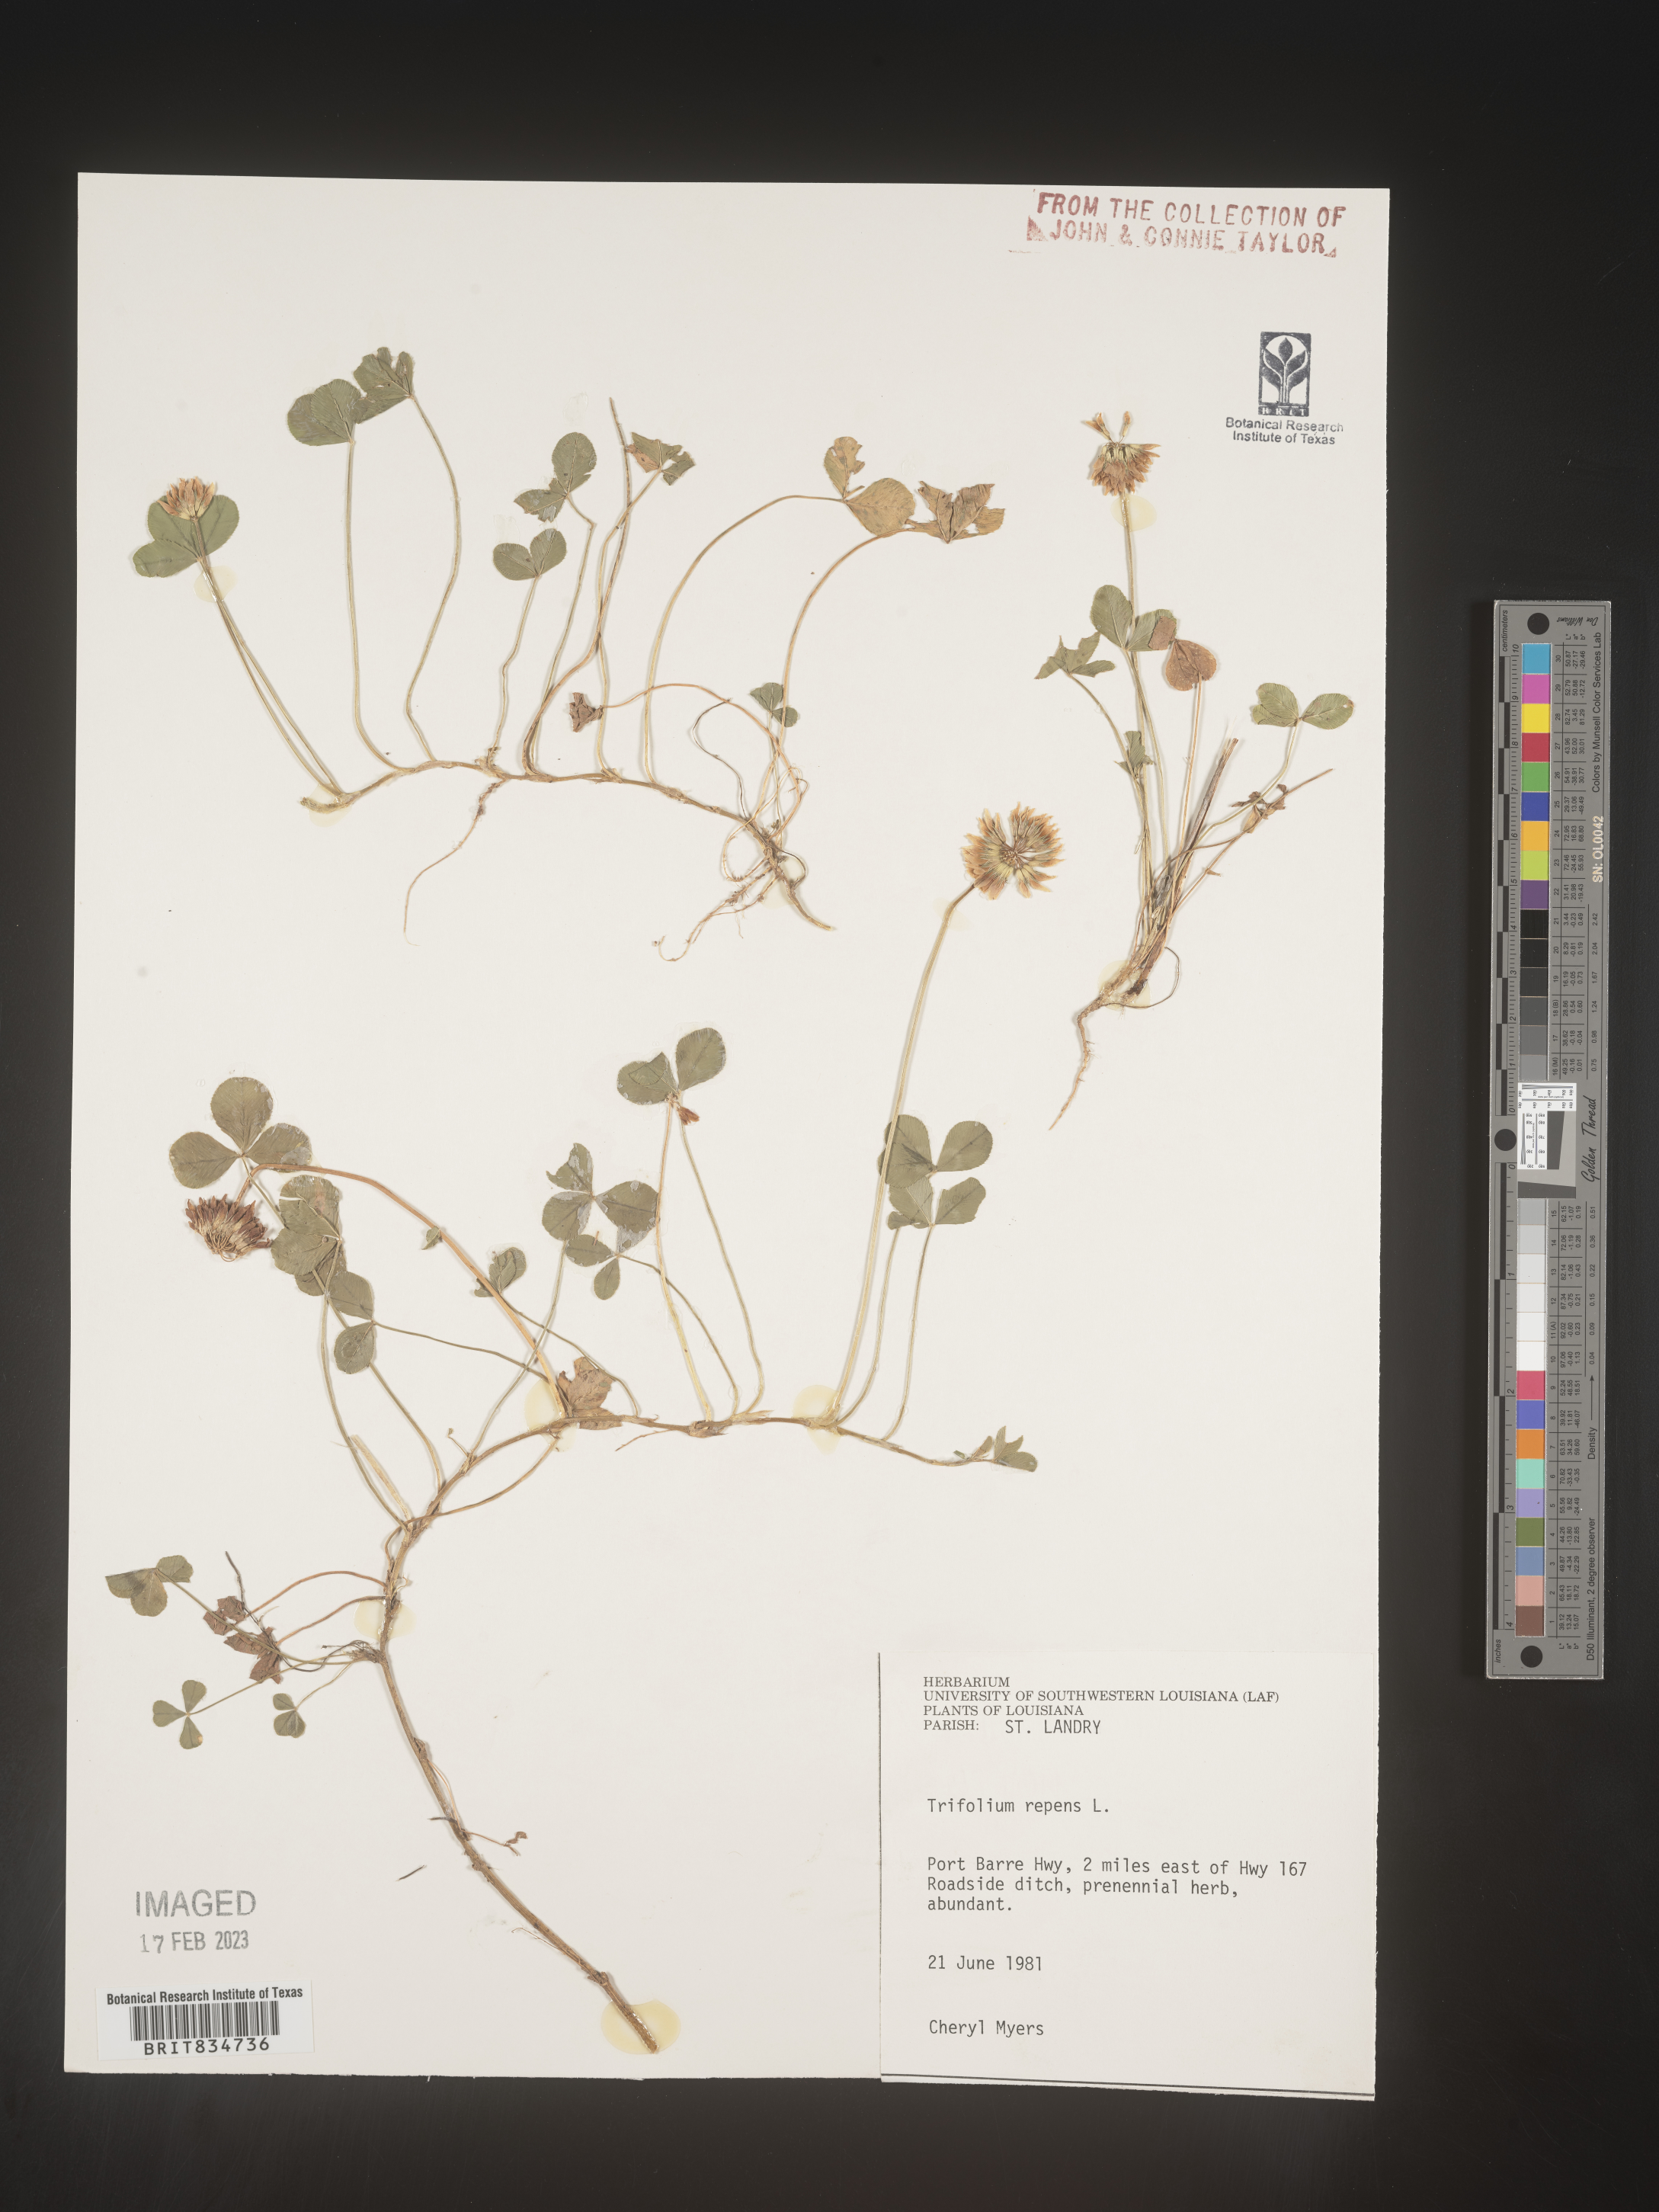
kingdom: Plantae
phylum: Tracheophyta
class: Magnoliopsida
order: Fabales
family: Fabaceae
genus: Trifolium
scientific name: Trifolium repens
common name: White clover
